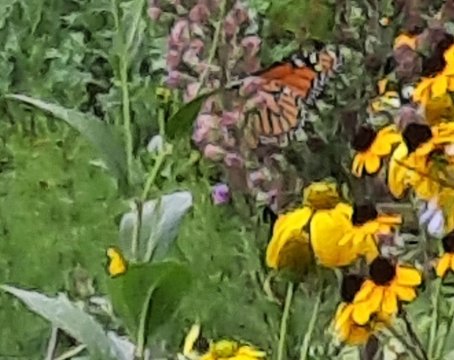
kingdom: Animalia
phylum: Arthropoda
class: Insecta
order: Lepidoptera
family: Nymphalidae
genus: Danaus
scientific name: Danaus plexippus
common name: Monarch
